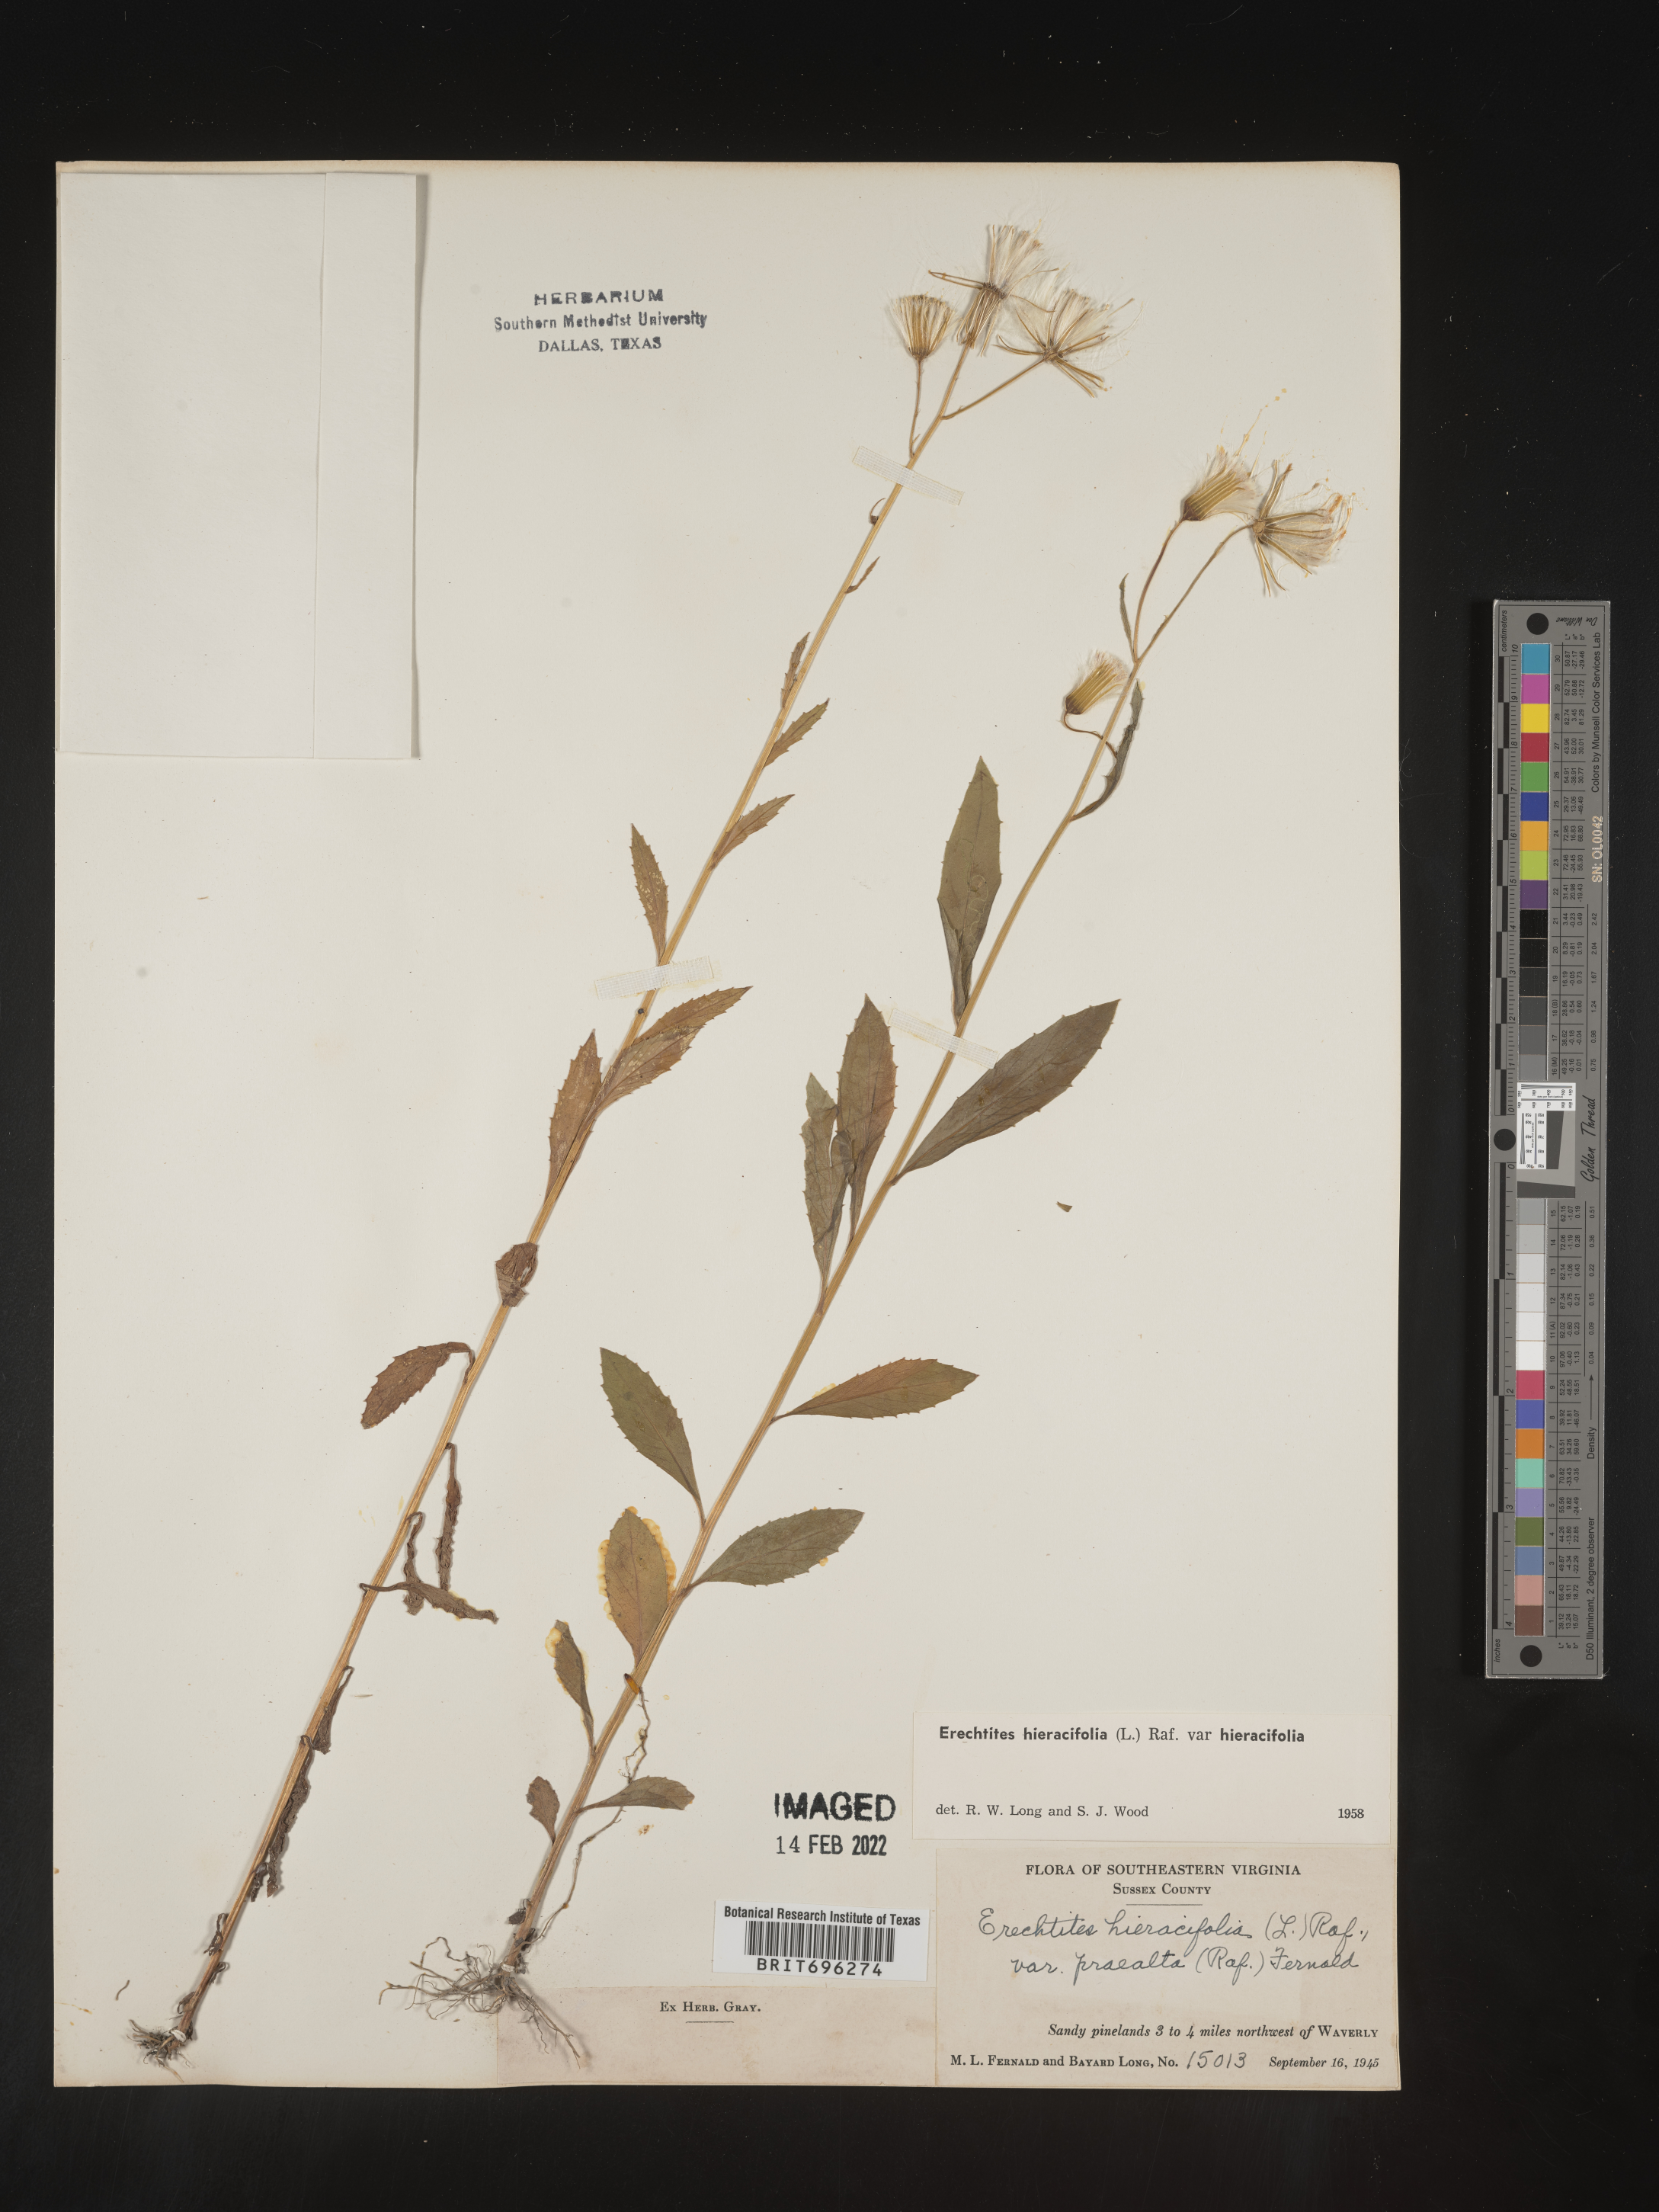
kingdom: Plantae
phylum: Tracheophyta
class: Magnoliopsida
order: Asterales
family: Asteraceae
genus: Erechtites
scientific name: Erechtites hieraciifolius
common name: American burnweed
